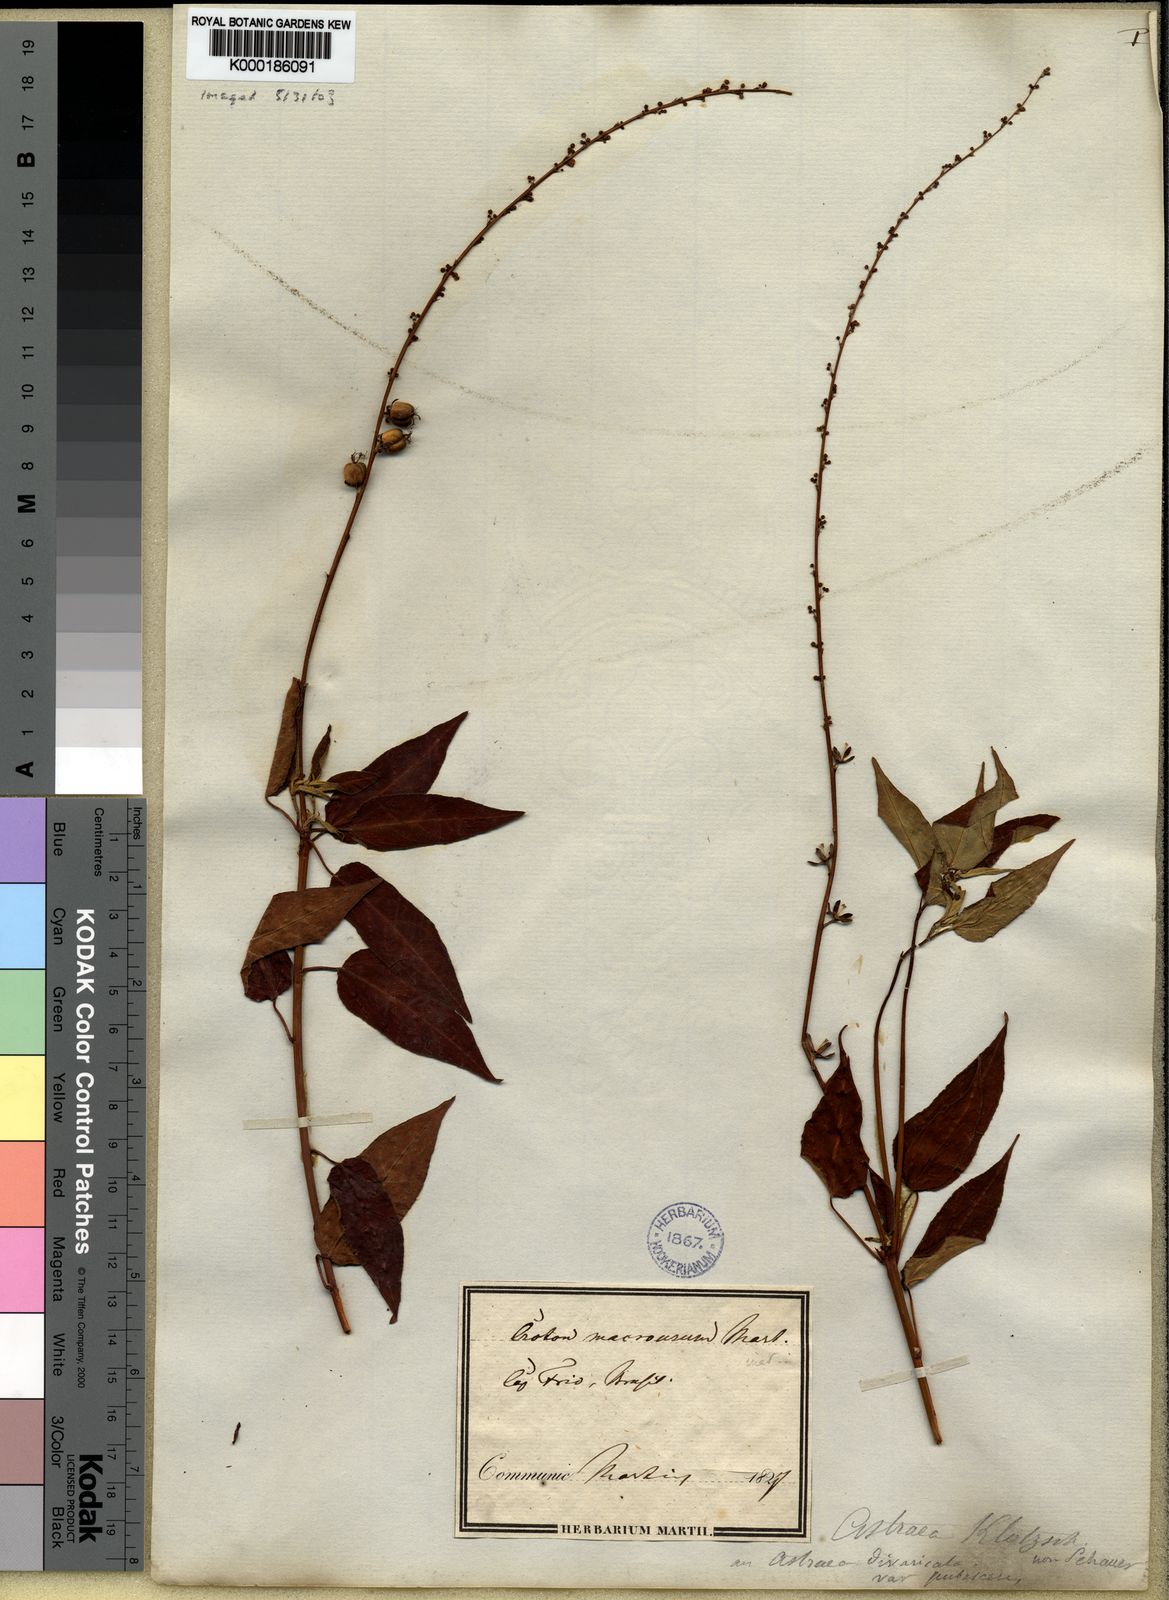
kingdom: Plantae
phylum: Tracheophyta
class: Magnoliopsida
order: Malpighiales
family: Euphorbiaceae
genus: Astraea
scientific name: Astraea macroura
